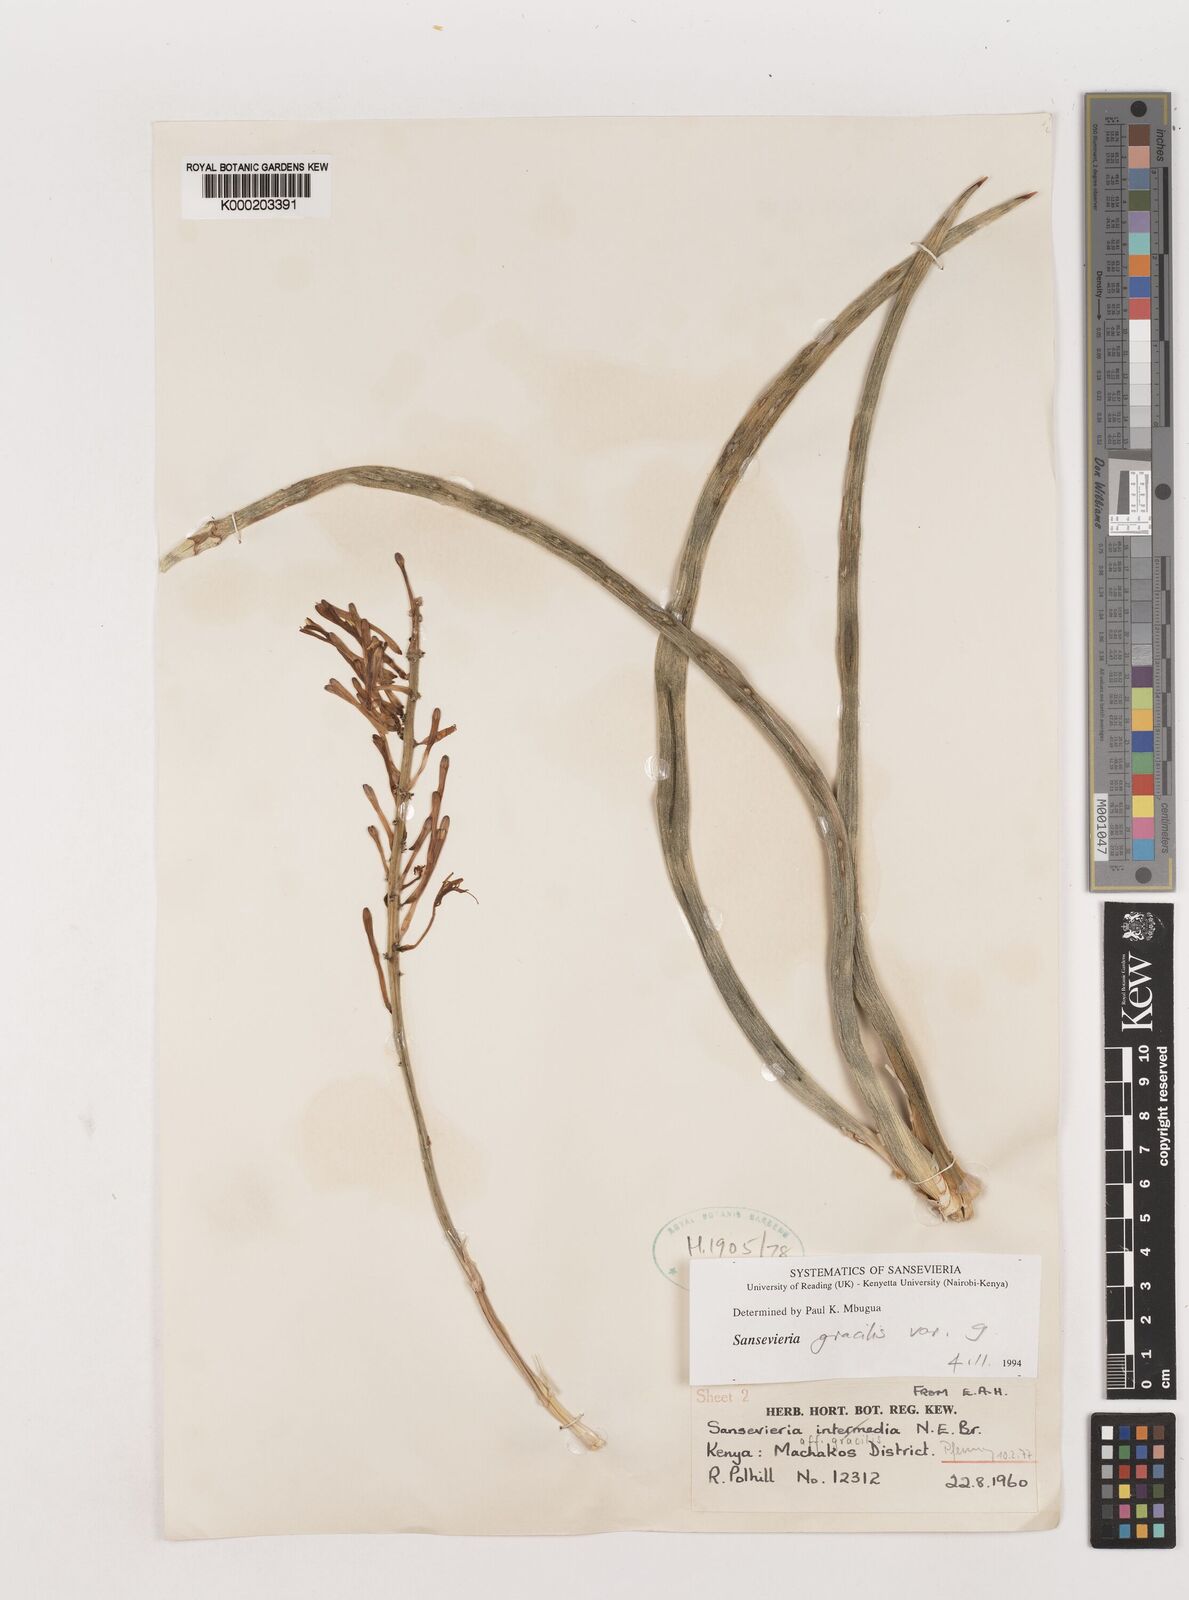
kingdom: Plantae
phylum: Tracheophyta
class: Liliopsida
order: Asparagales
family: Asparagaceae
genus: Dracaena
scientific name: Dracaena serpenta
